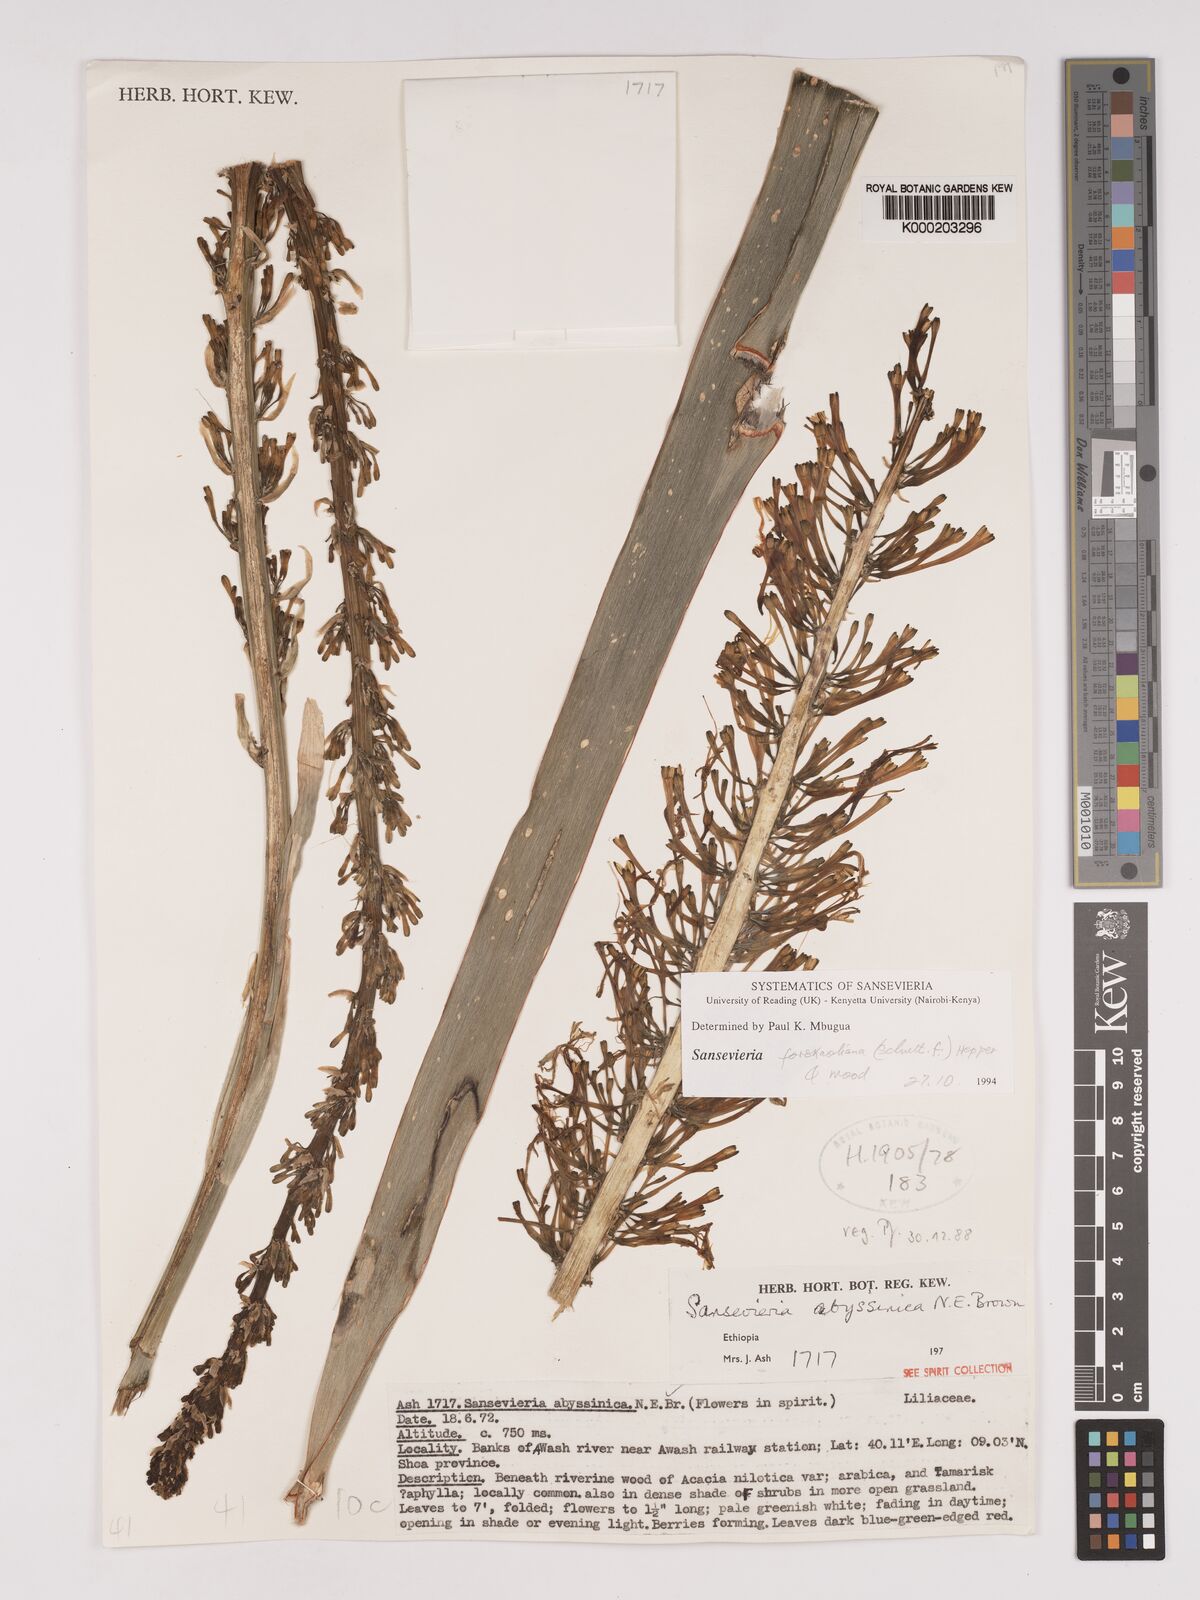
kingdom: Plantae
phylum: Tracheophyta
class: Liliopsida
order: Asparagales
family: Asparagaceae
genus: Dracaena
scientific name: Dracaena forskaliana
